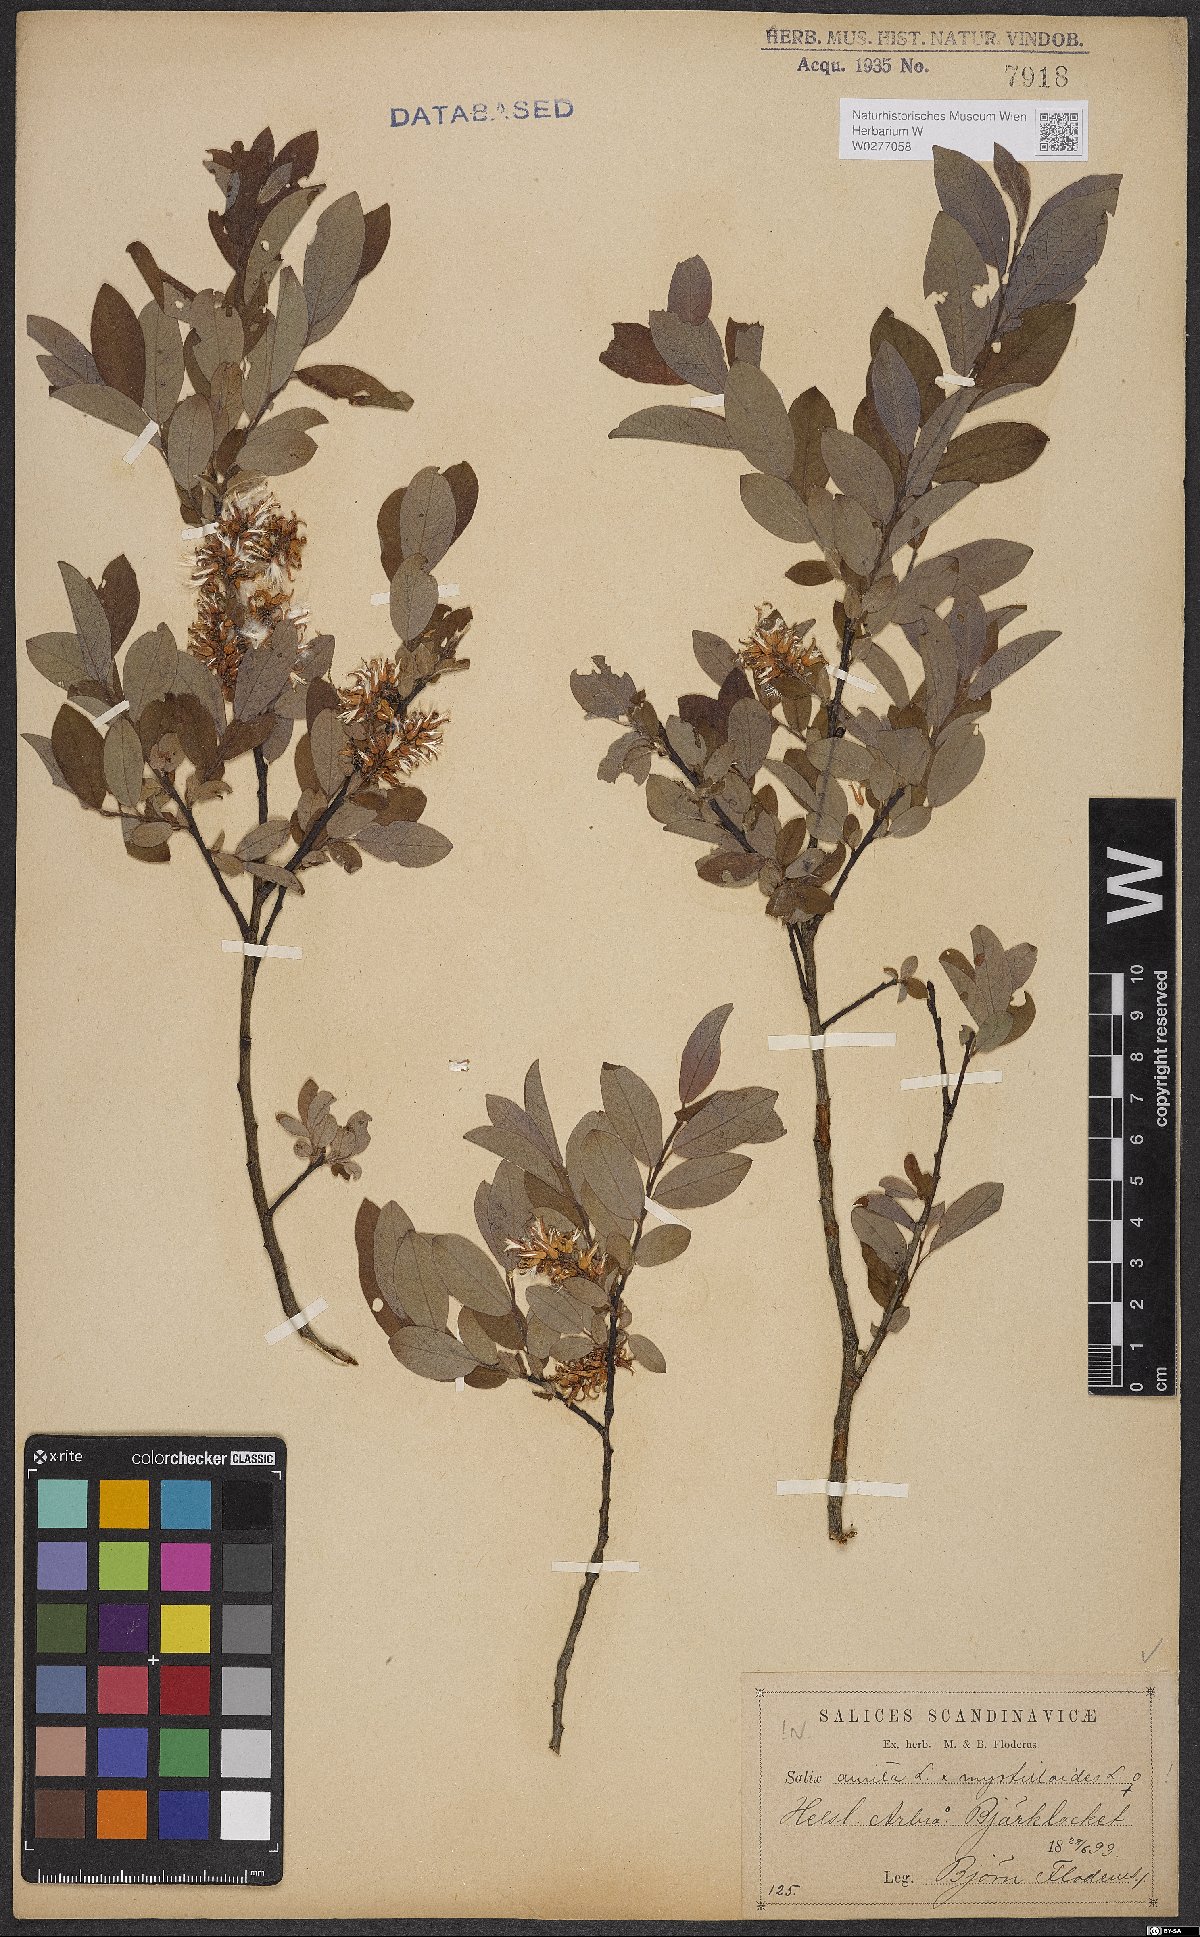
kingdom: Plantae
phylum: Tracheophyta
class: Magnoliopsida
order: Malpighiales
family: Salicaceae
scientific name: Salicaceae
